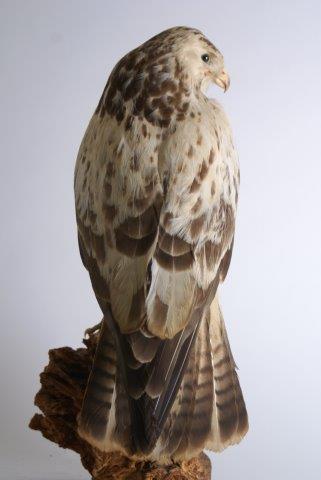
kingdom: Animalia
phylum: Chordata
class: Aves
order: Accipitriformes
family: Accipitridae
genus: Buteo
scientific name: Buteo buteo
